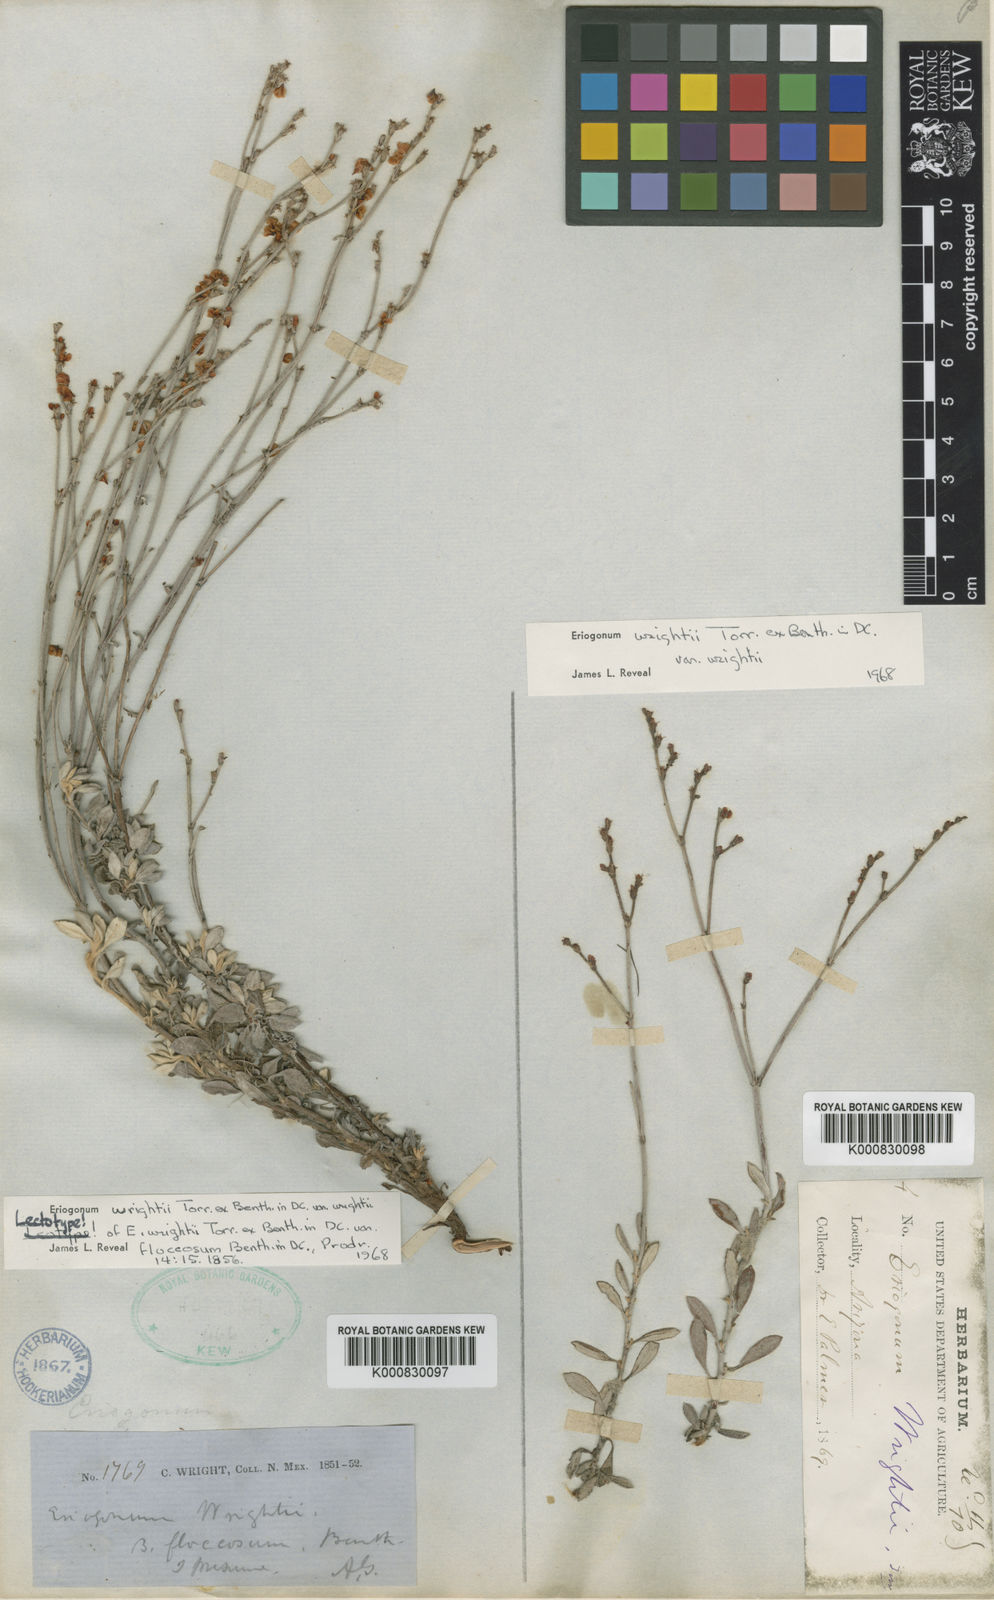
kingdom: Plantae
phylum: Tracheophyta
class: Magnoliopsida
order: Caryophyllales
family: Polygonaceae
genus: Eriogonum
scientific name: Eriogonum wrightii
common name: Bastard-sage
